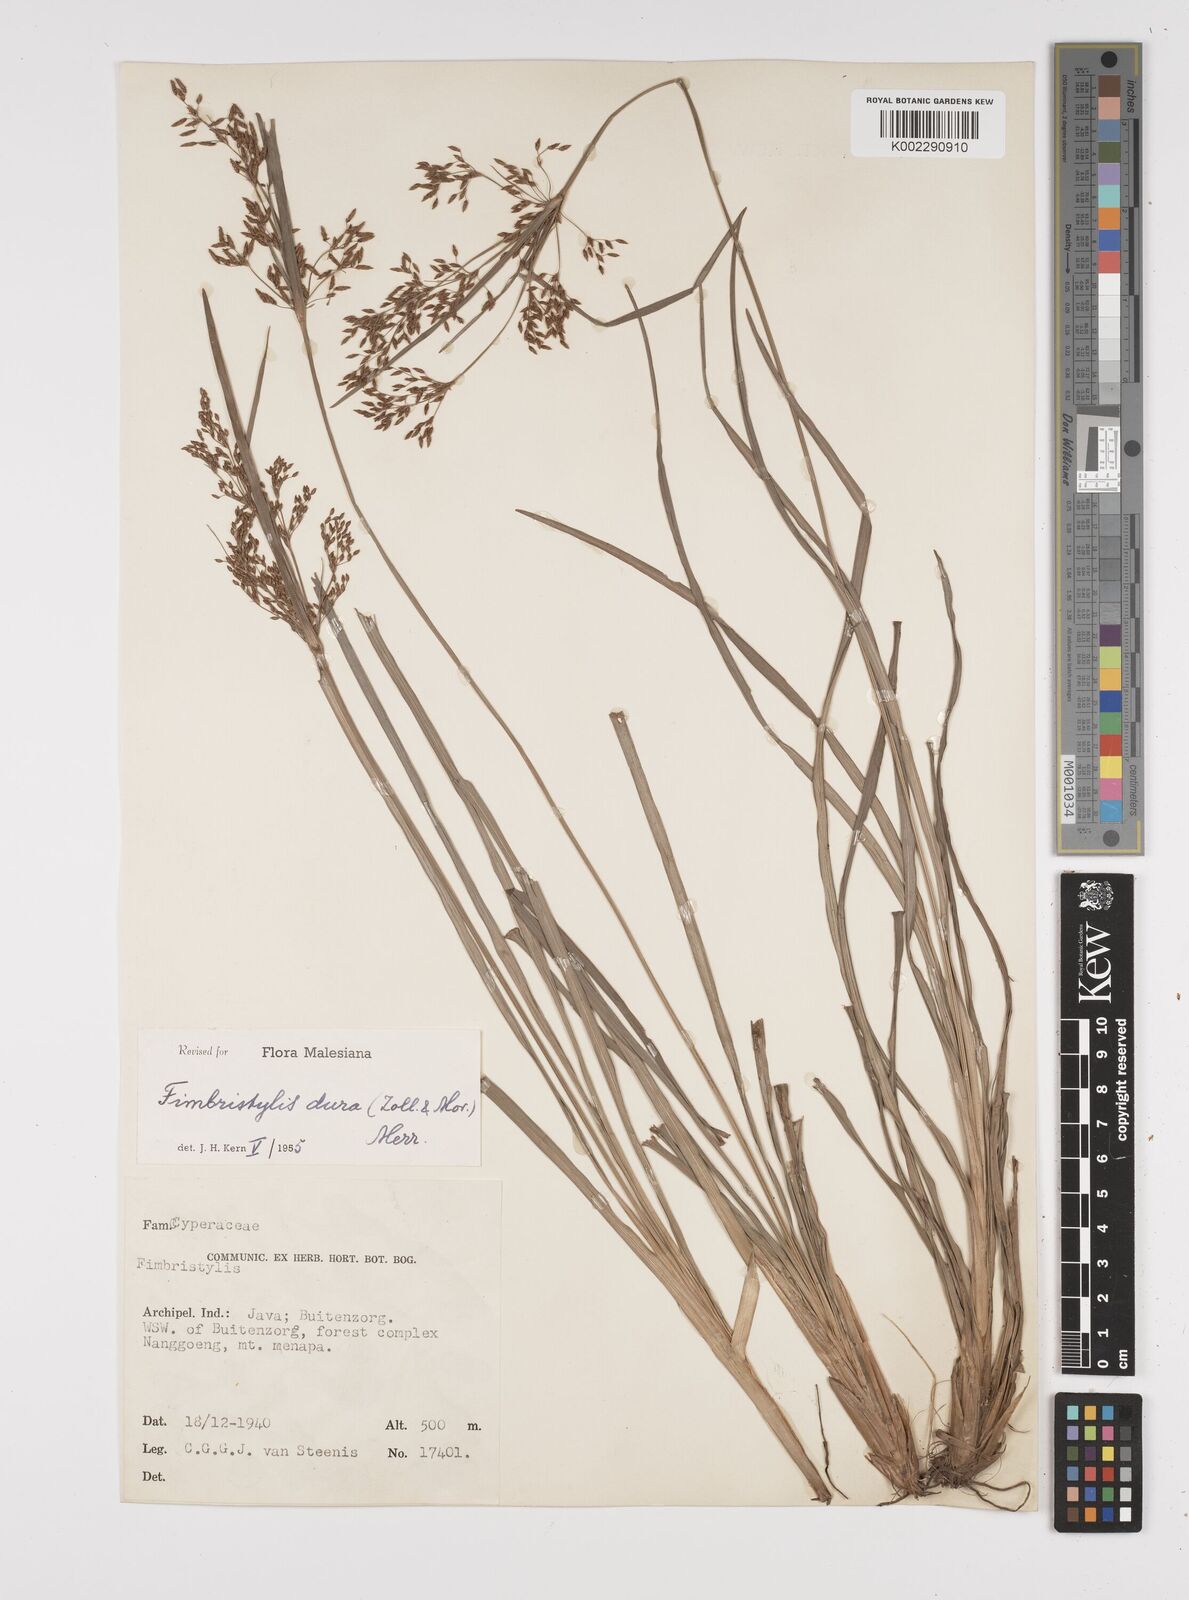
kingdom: Plantae
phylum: Tracheophyta
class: Liliopsida
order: Poales
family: Cyperaceae
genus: Fimbristylis
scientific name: Fimbristylis dura
